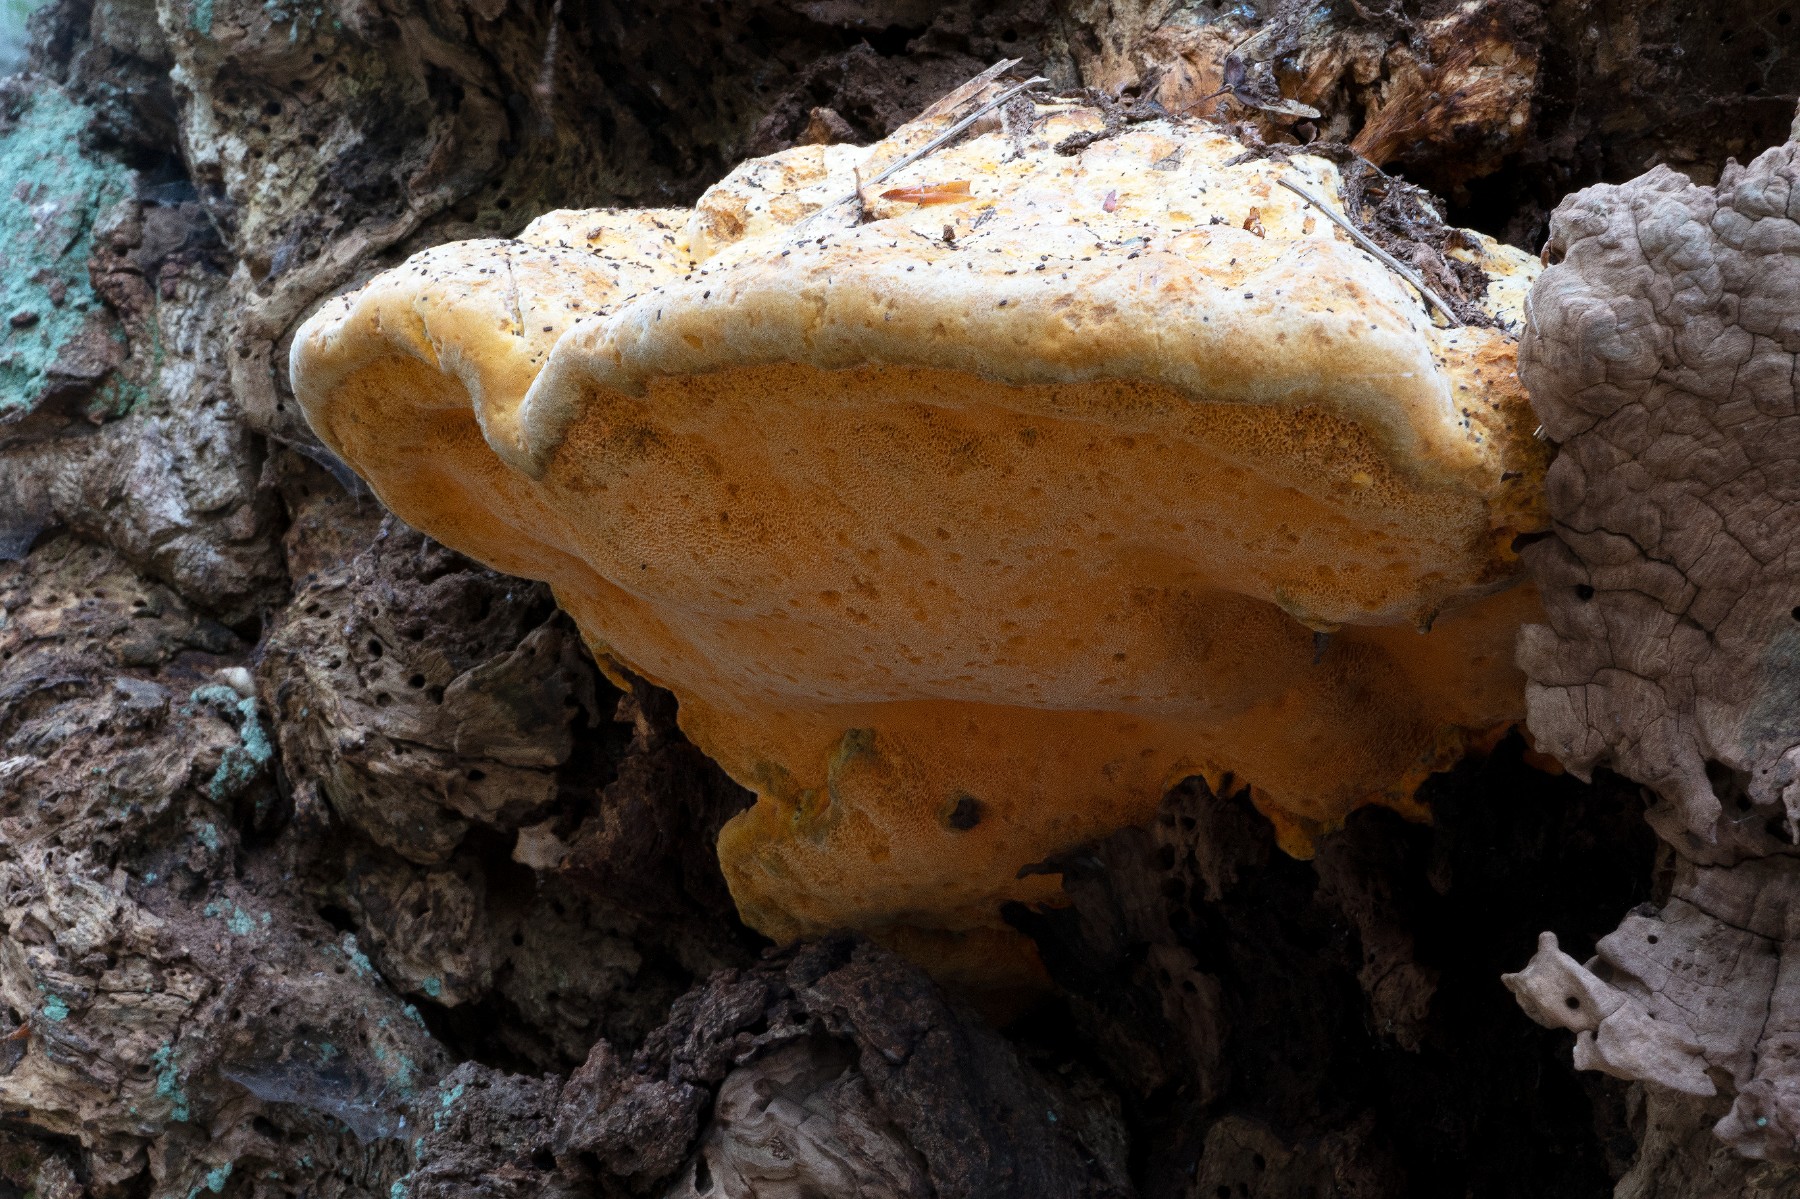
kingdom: Fungi
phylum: Basidiomycota
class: Agaricomycetes
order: Polyporales
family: Phanerochaetaceae
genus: Hapalopilus
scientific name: Hapalopilus croceus
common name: safrangul pragtporesvamp
